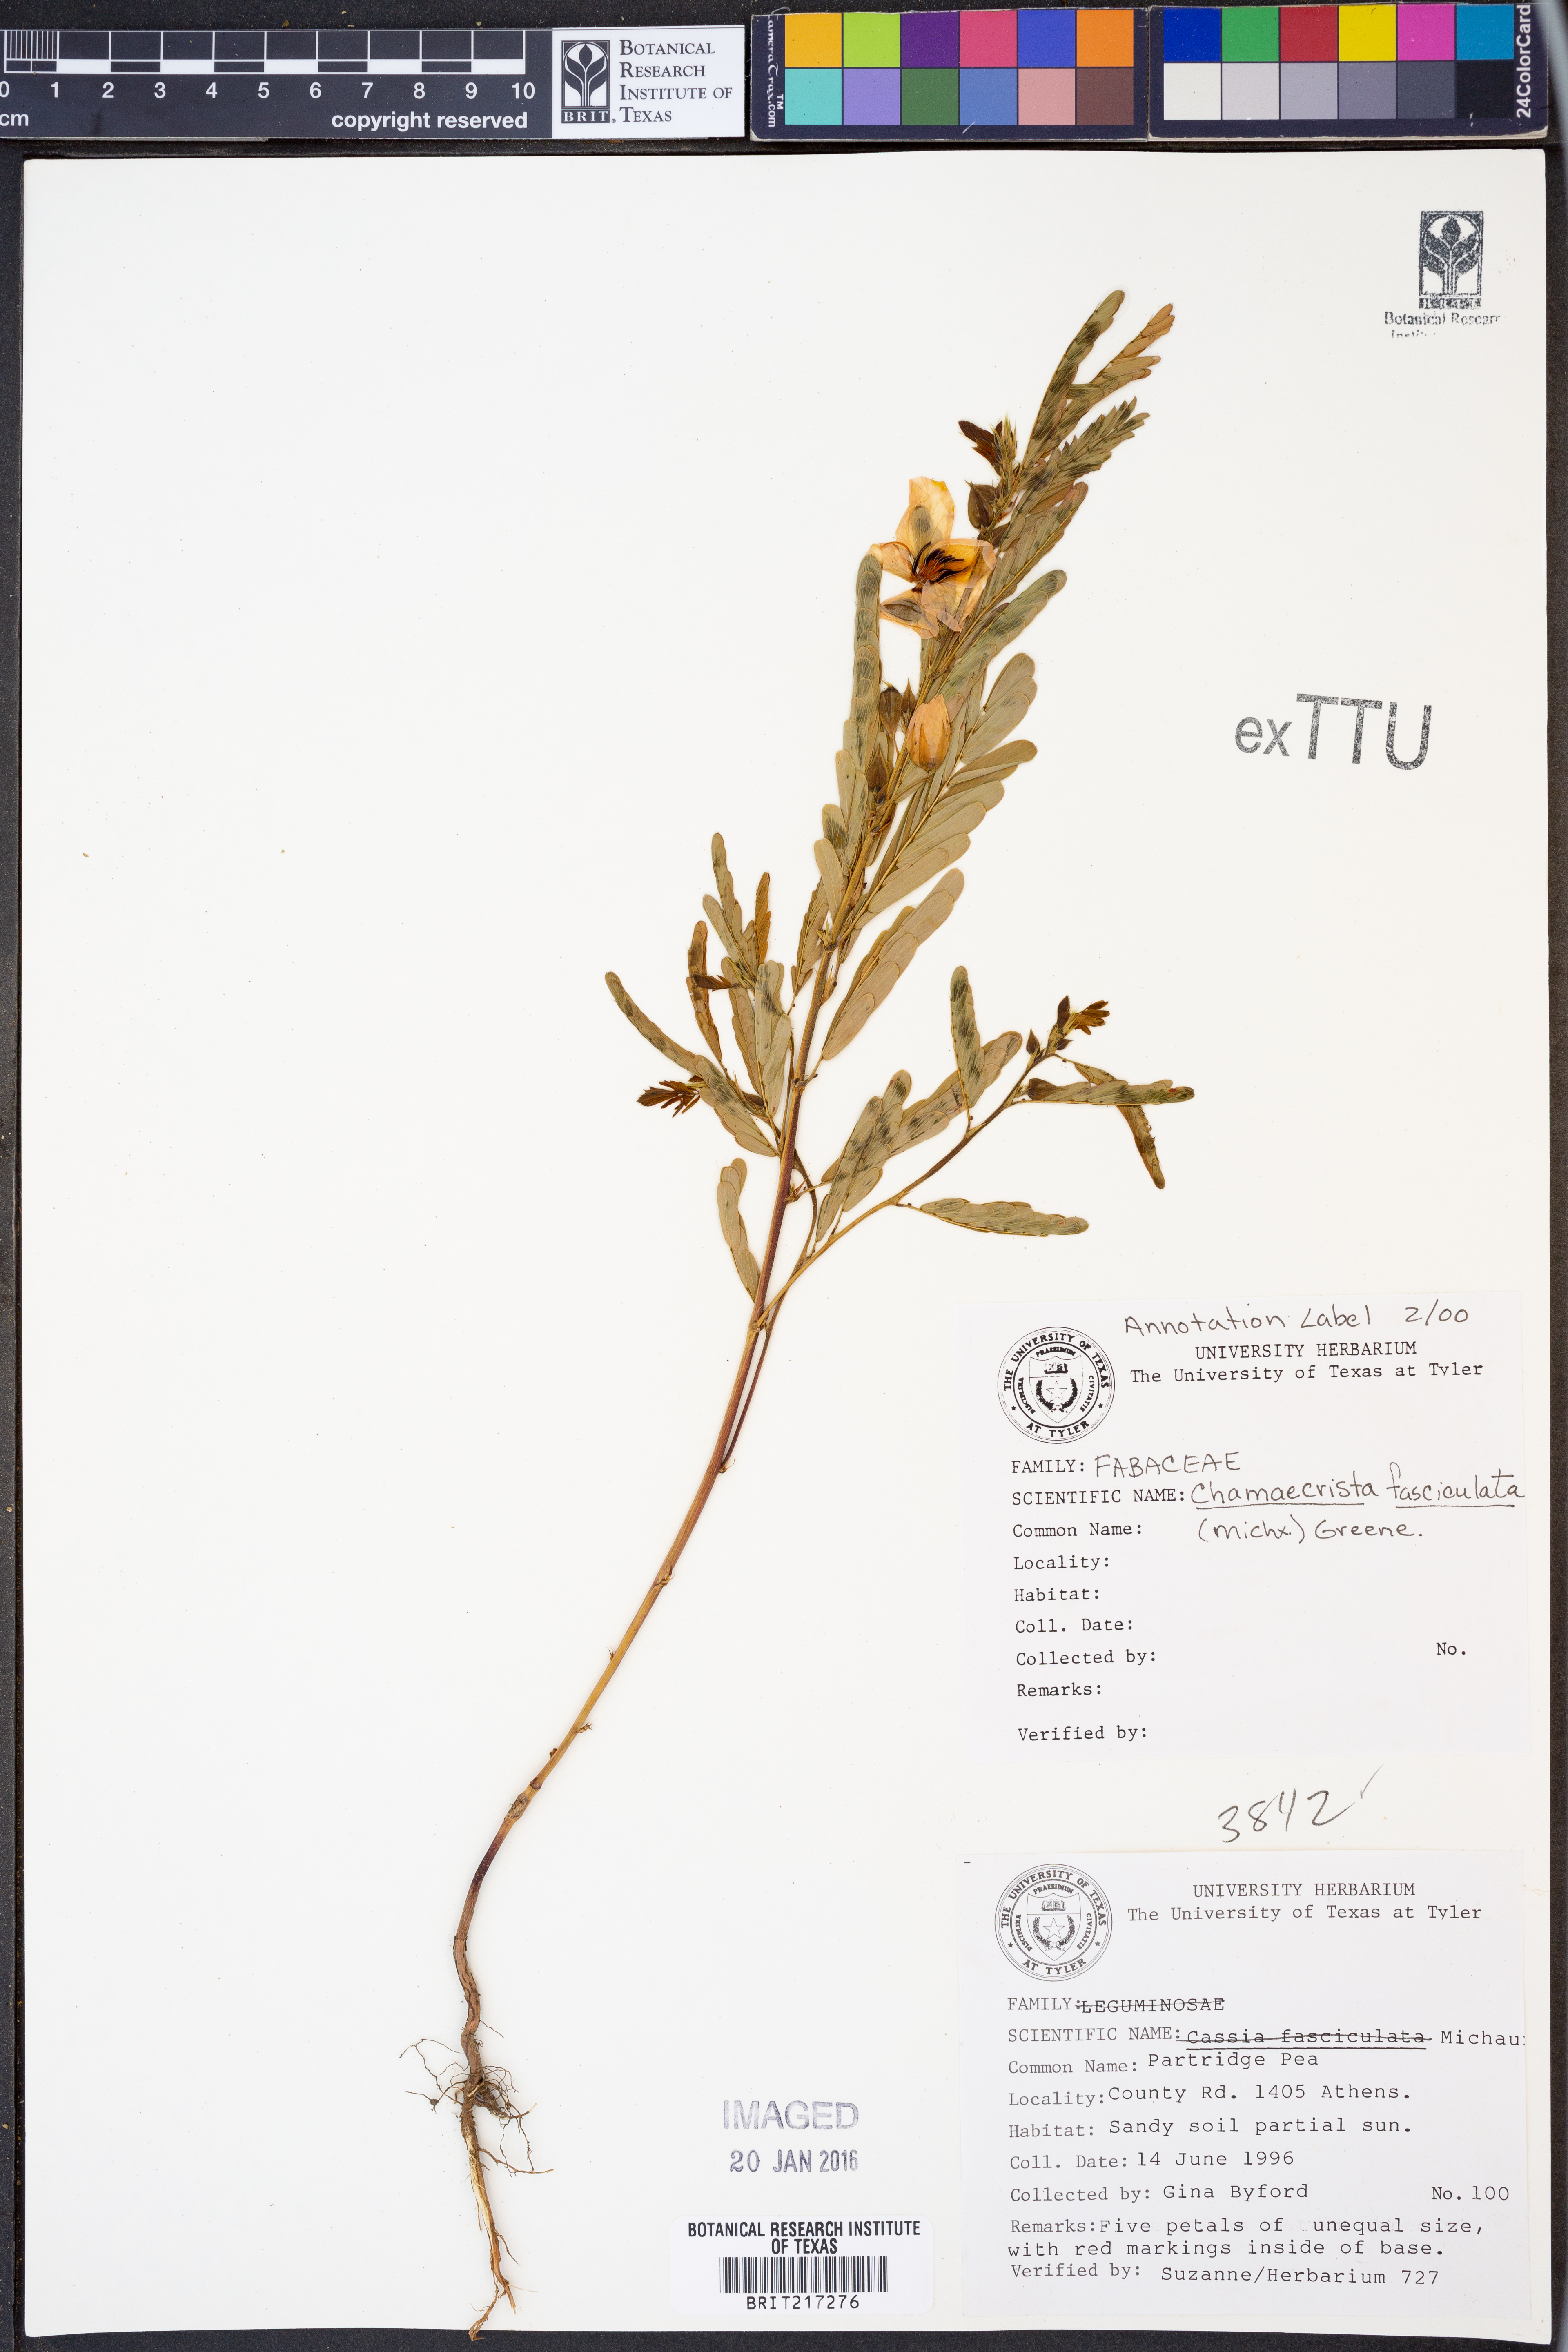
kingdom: Plantae
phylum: Tracheophyta
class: Magnoliopsida
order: Fabales
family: Fabaceae
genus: Chamaecrista
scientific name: Chamaecrista fasciculata
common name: Golden cassia
